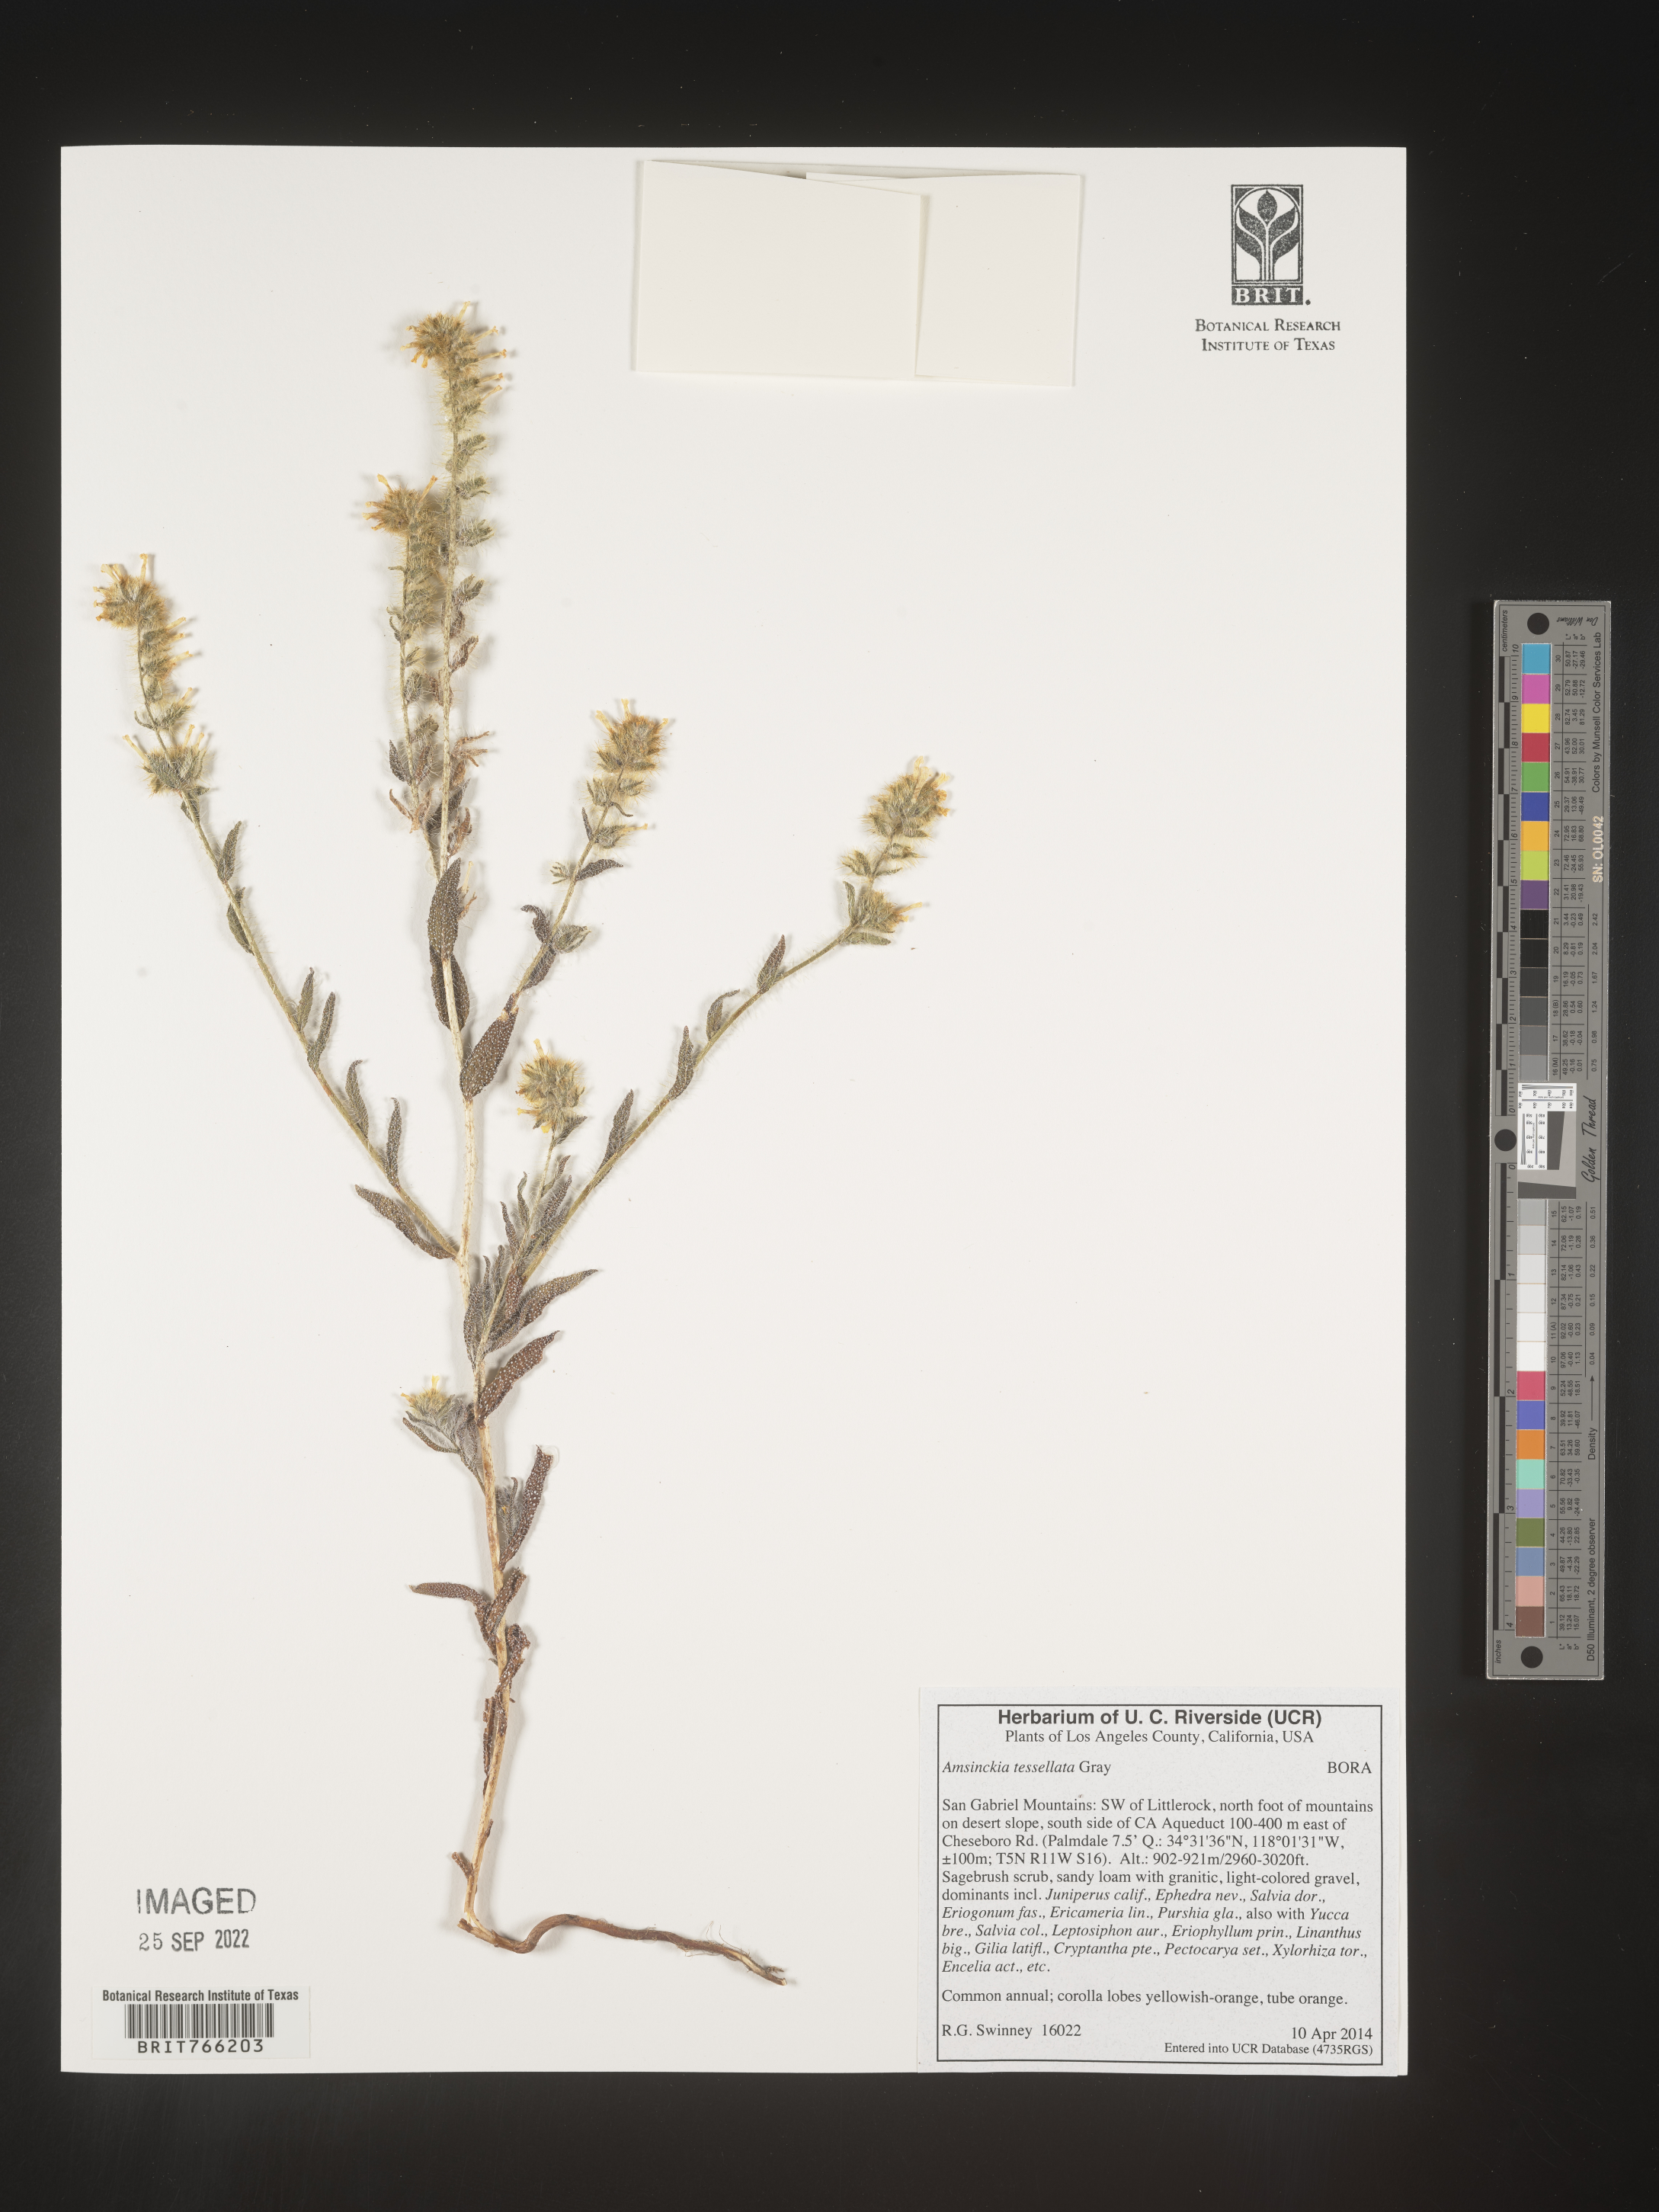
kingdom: Plantae
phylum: Tracheophyta
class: Magnoliopsida
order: Boraginales
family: Boraginaceae
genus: Amsinckia
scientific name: Amsinckia tessellata
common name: Tessellate fiddleneck
